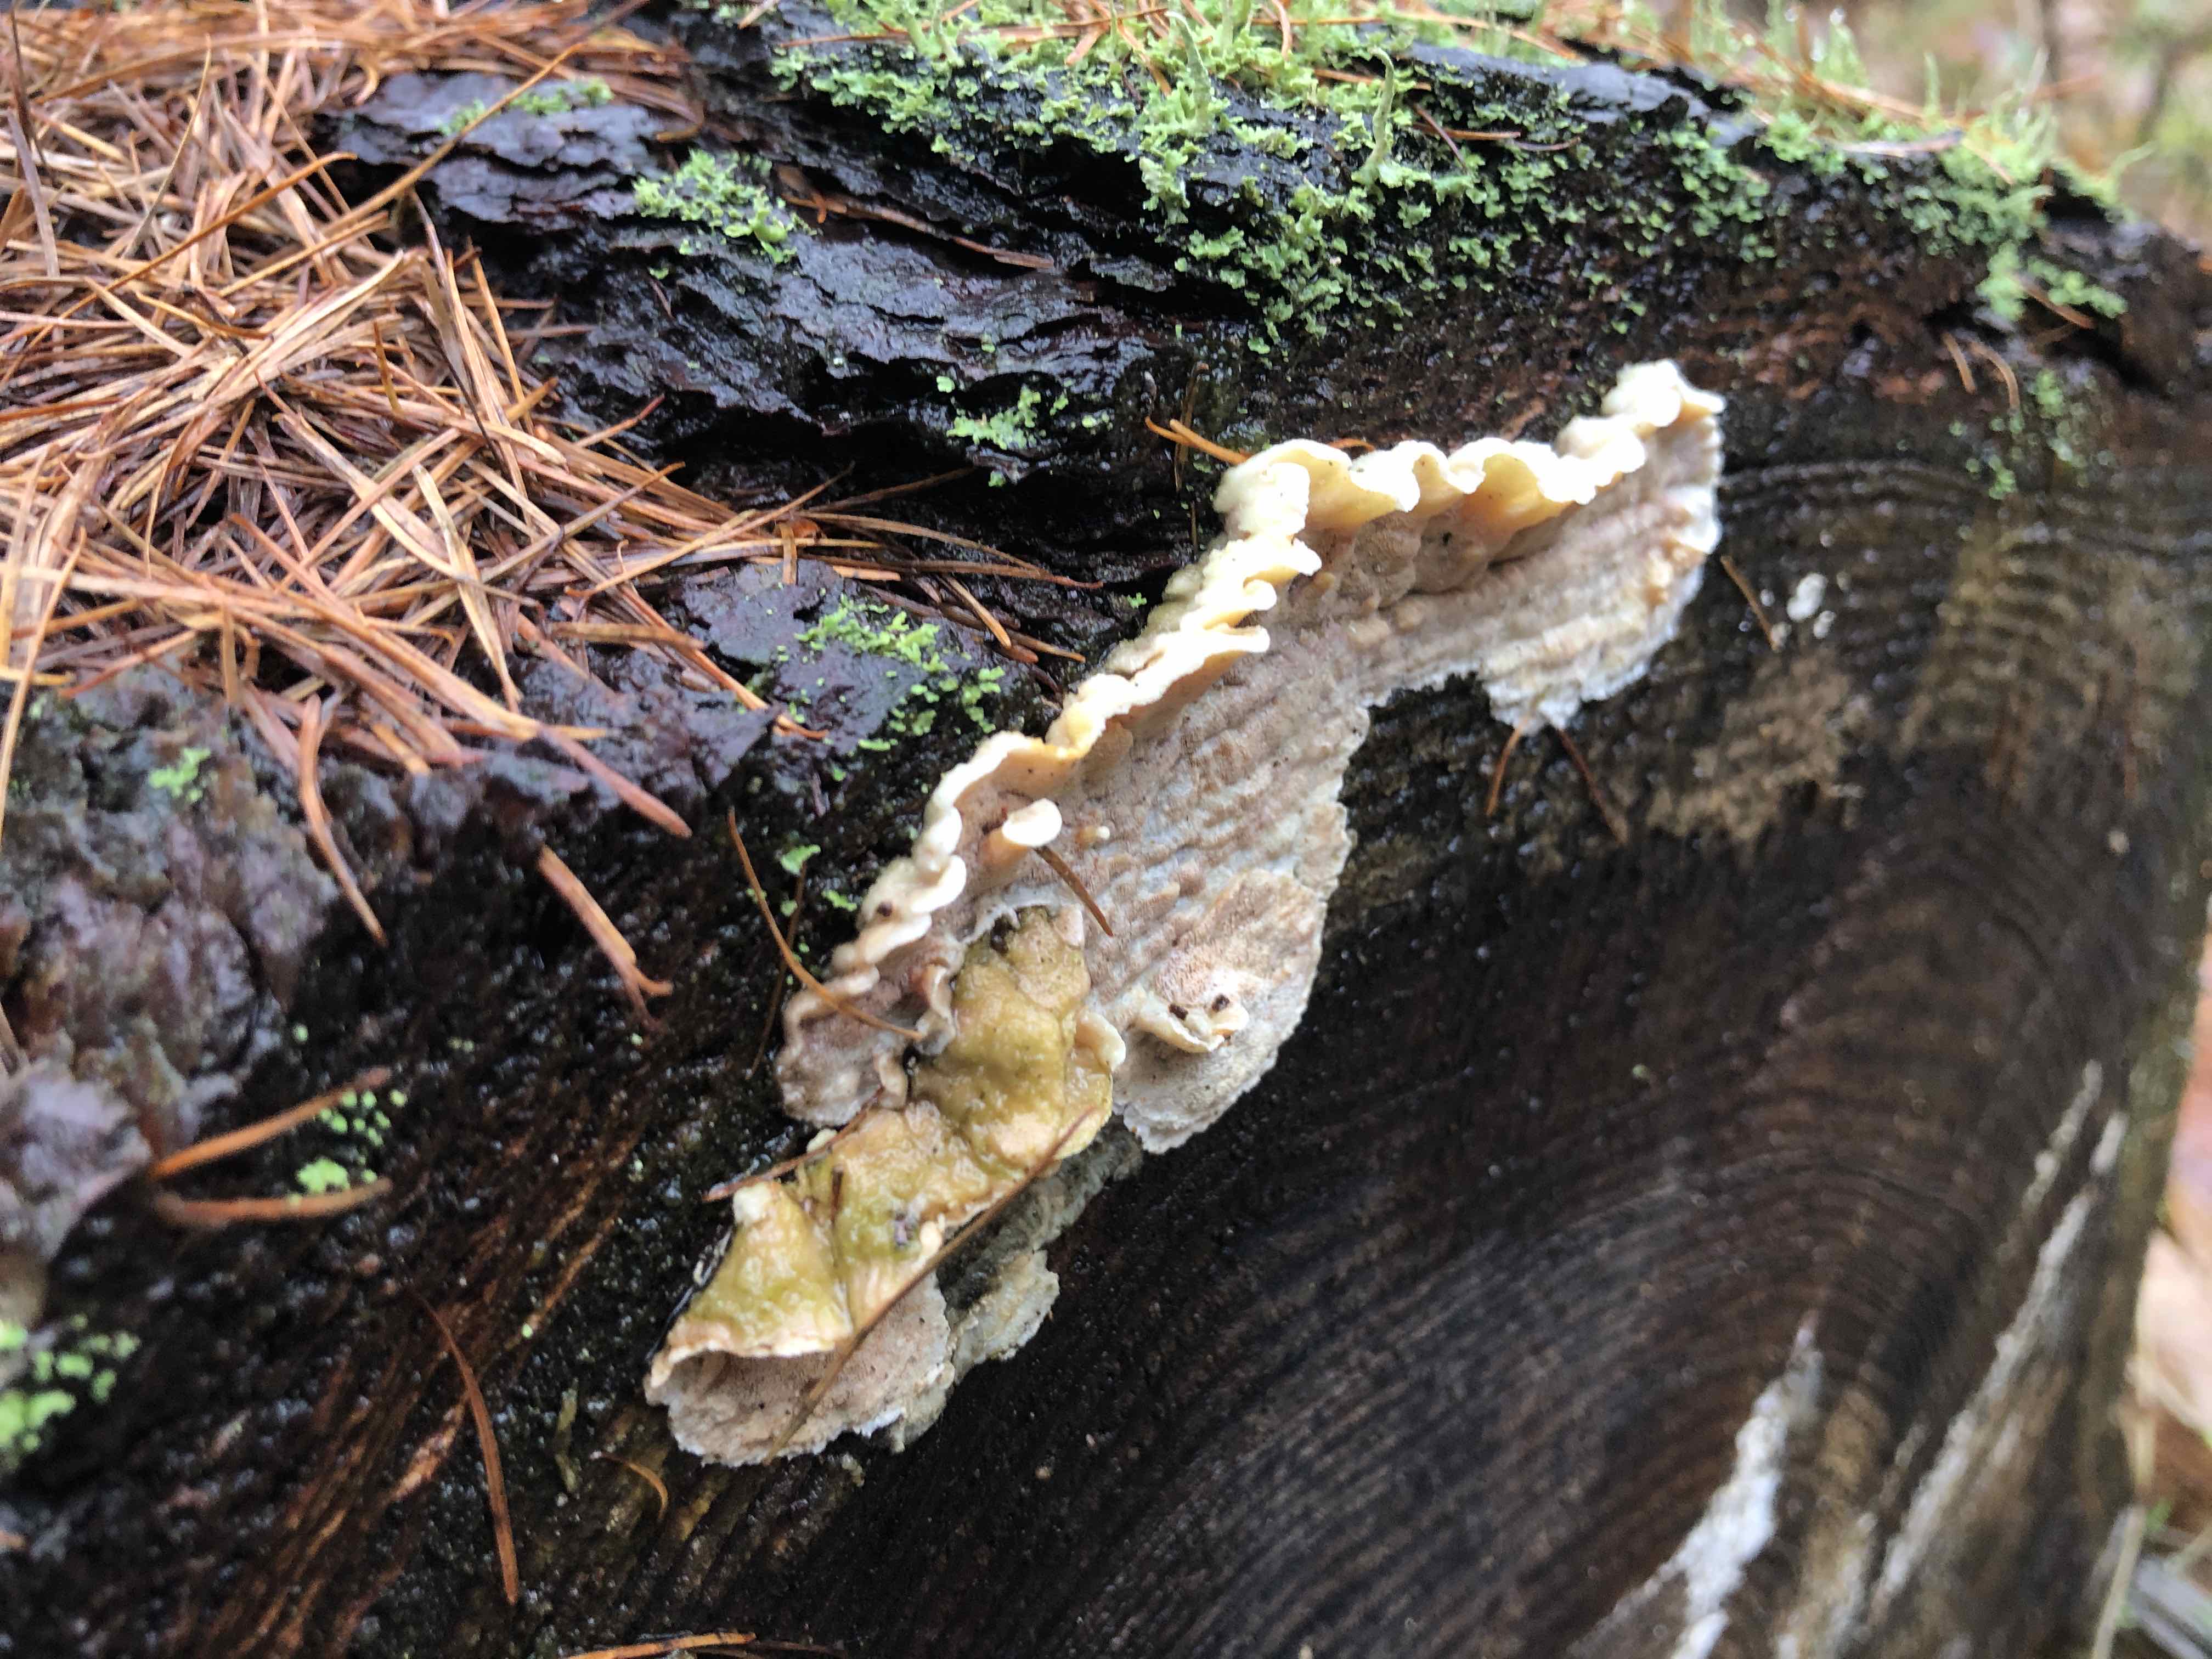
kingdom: Fungi
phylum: Basidiomycota
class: Agaricomycetes
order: Polyporales
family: Incrustoporiaceae
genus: Skeletocutis
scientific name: Skeletocutis amorpha
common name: orange krystalporesvamp
